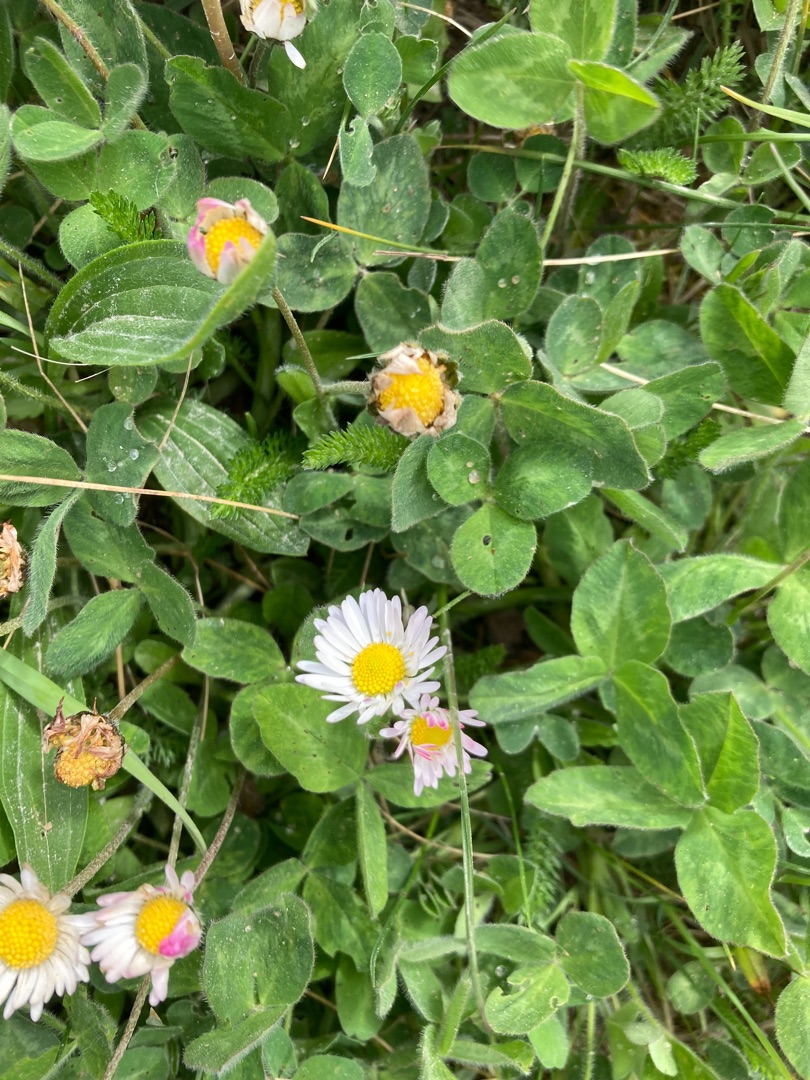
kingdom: Plantae
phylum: Tracheophyta
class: Magnoliopsida
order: Asterales
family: Asteraceae
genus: Bellis
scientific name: Bellis perennis
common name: Tusindfryd
